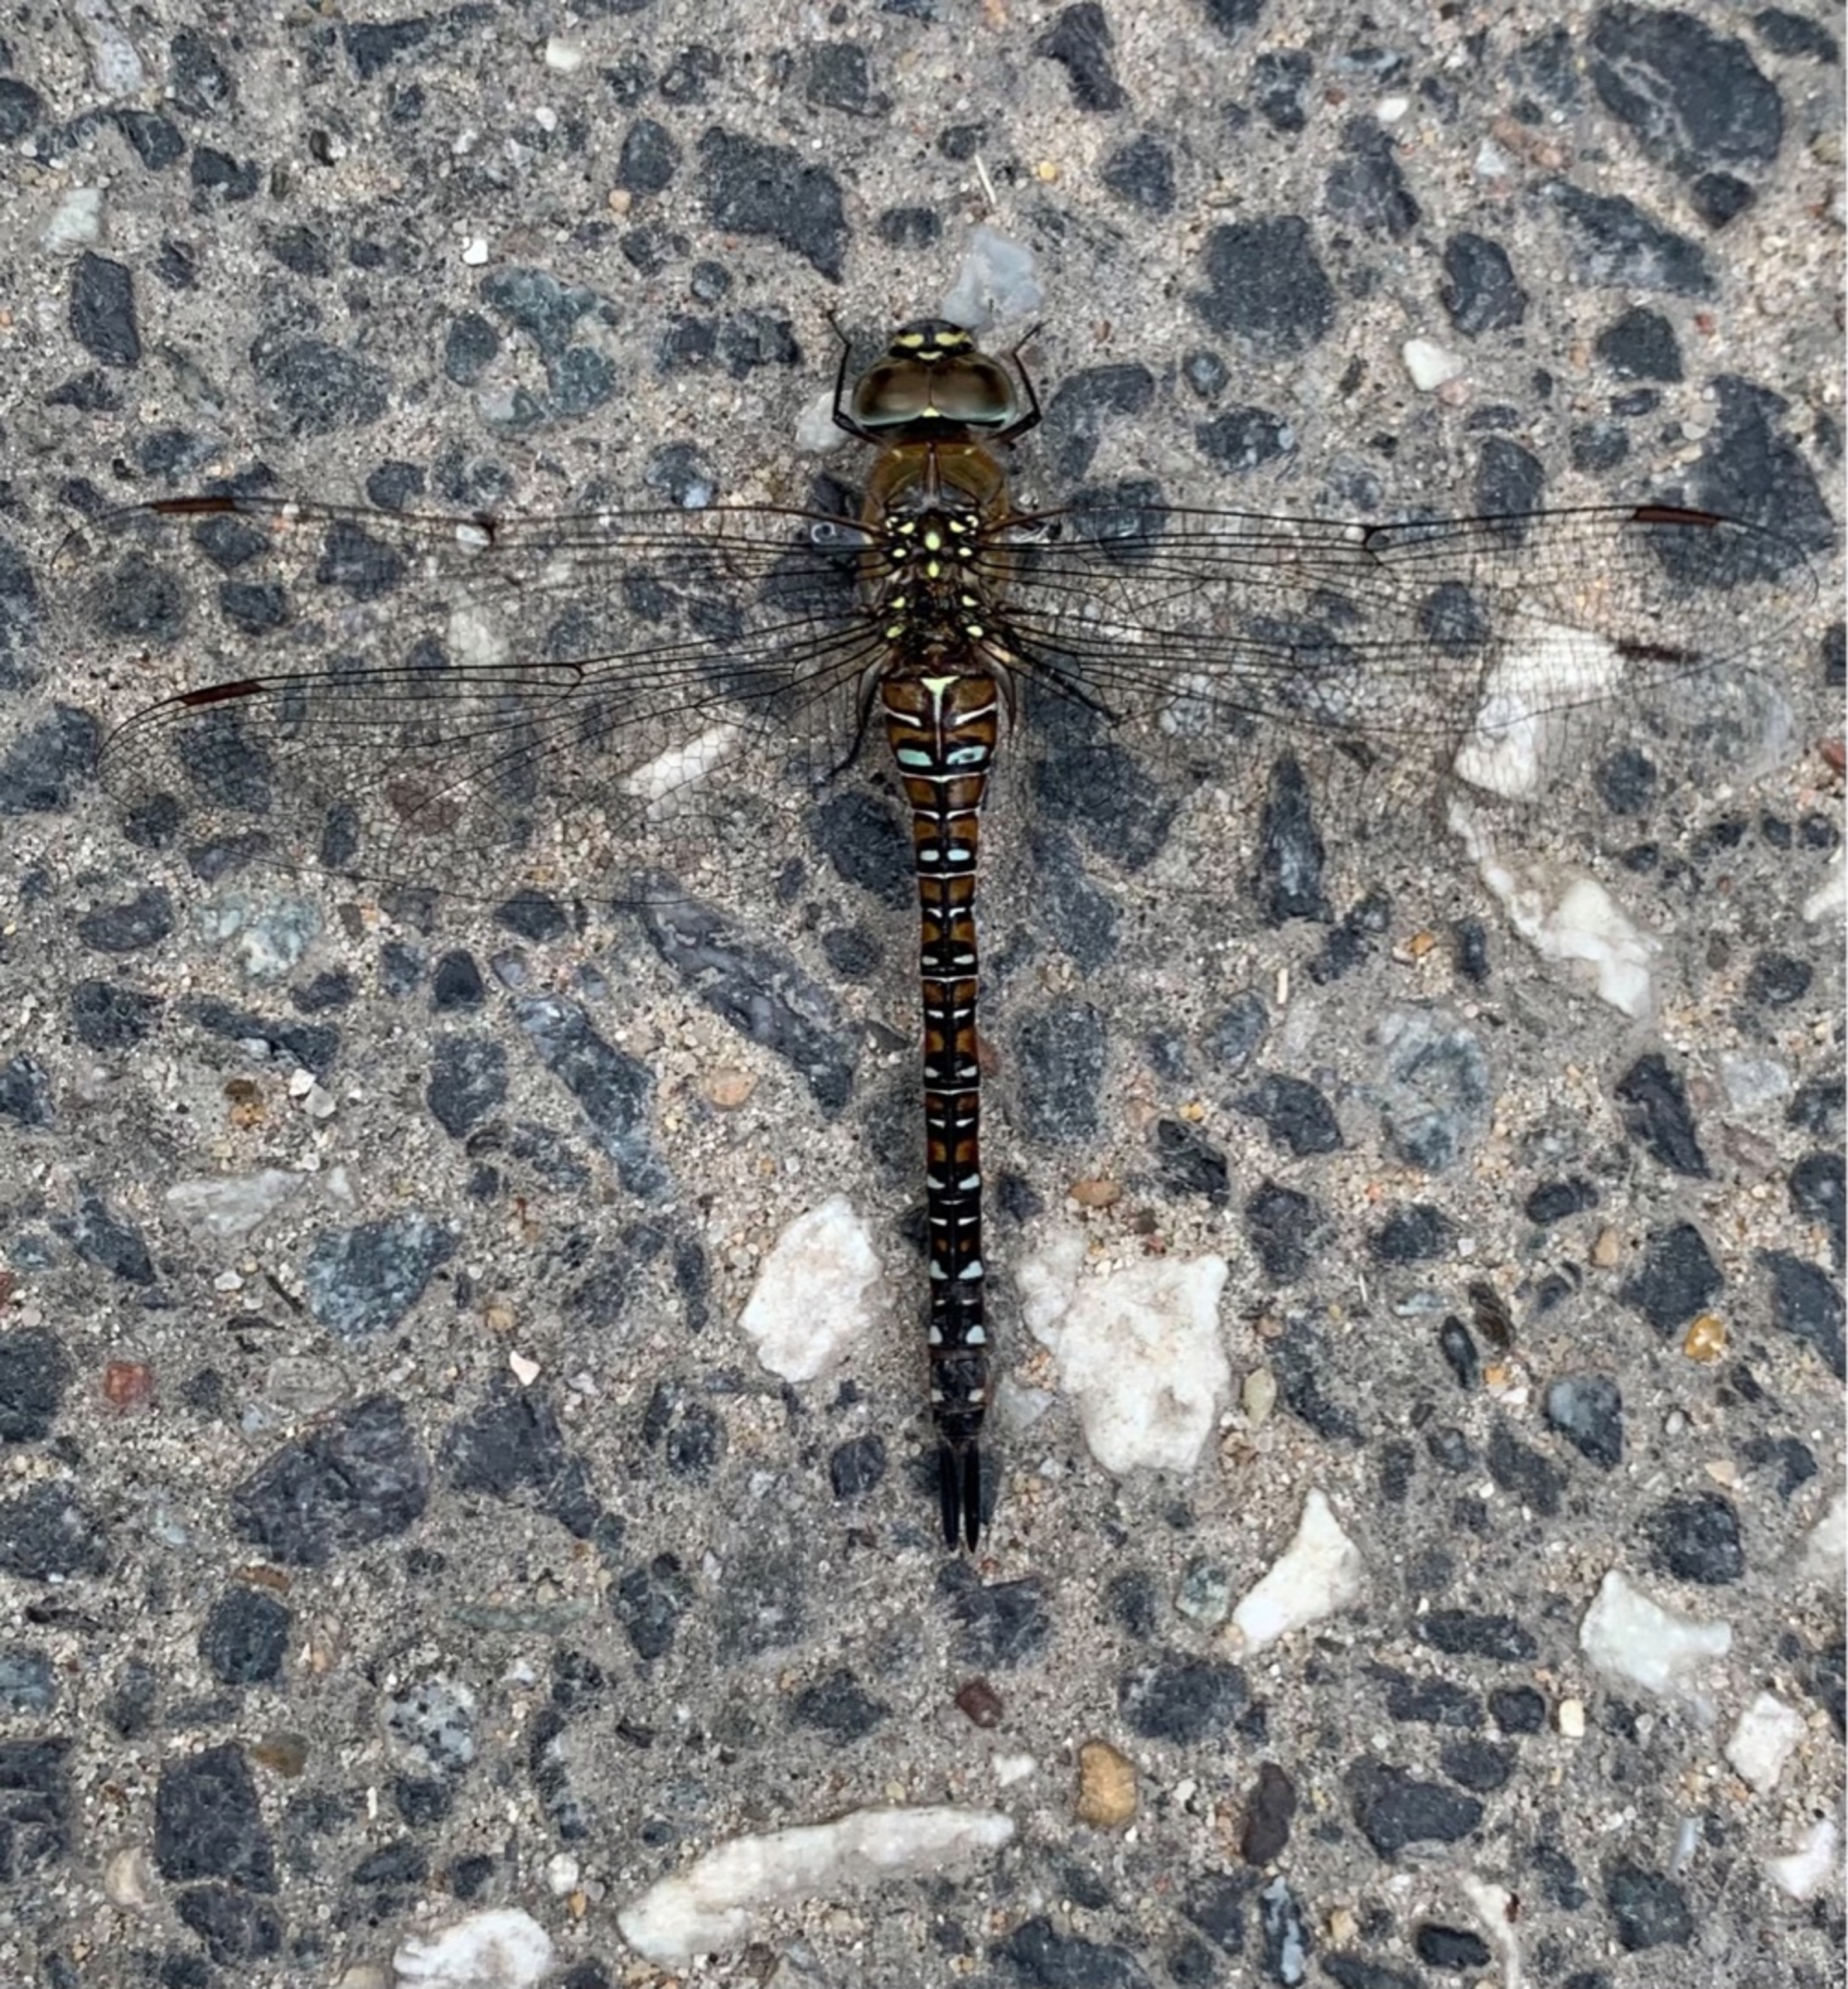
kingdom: Animalia
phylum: Arthropoda
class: Insecta
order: Odonata
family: Aeshnidae
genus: Aeshna
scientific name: Aeshna mixta
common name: Efterårs-mosaikguldsmed
